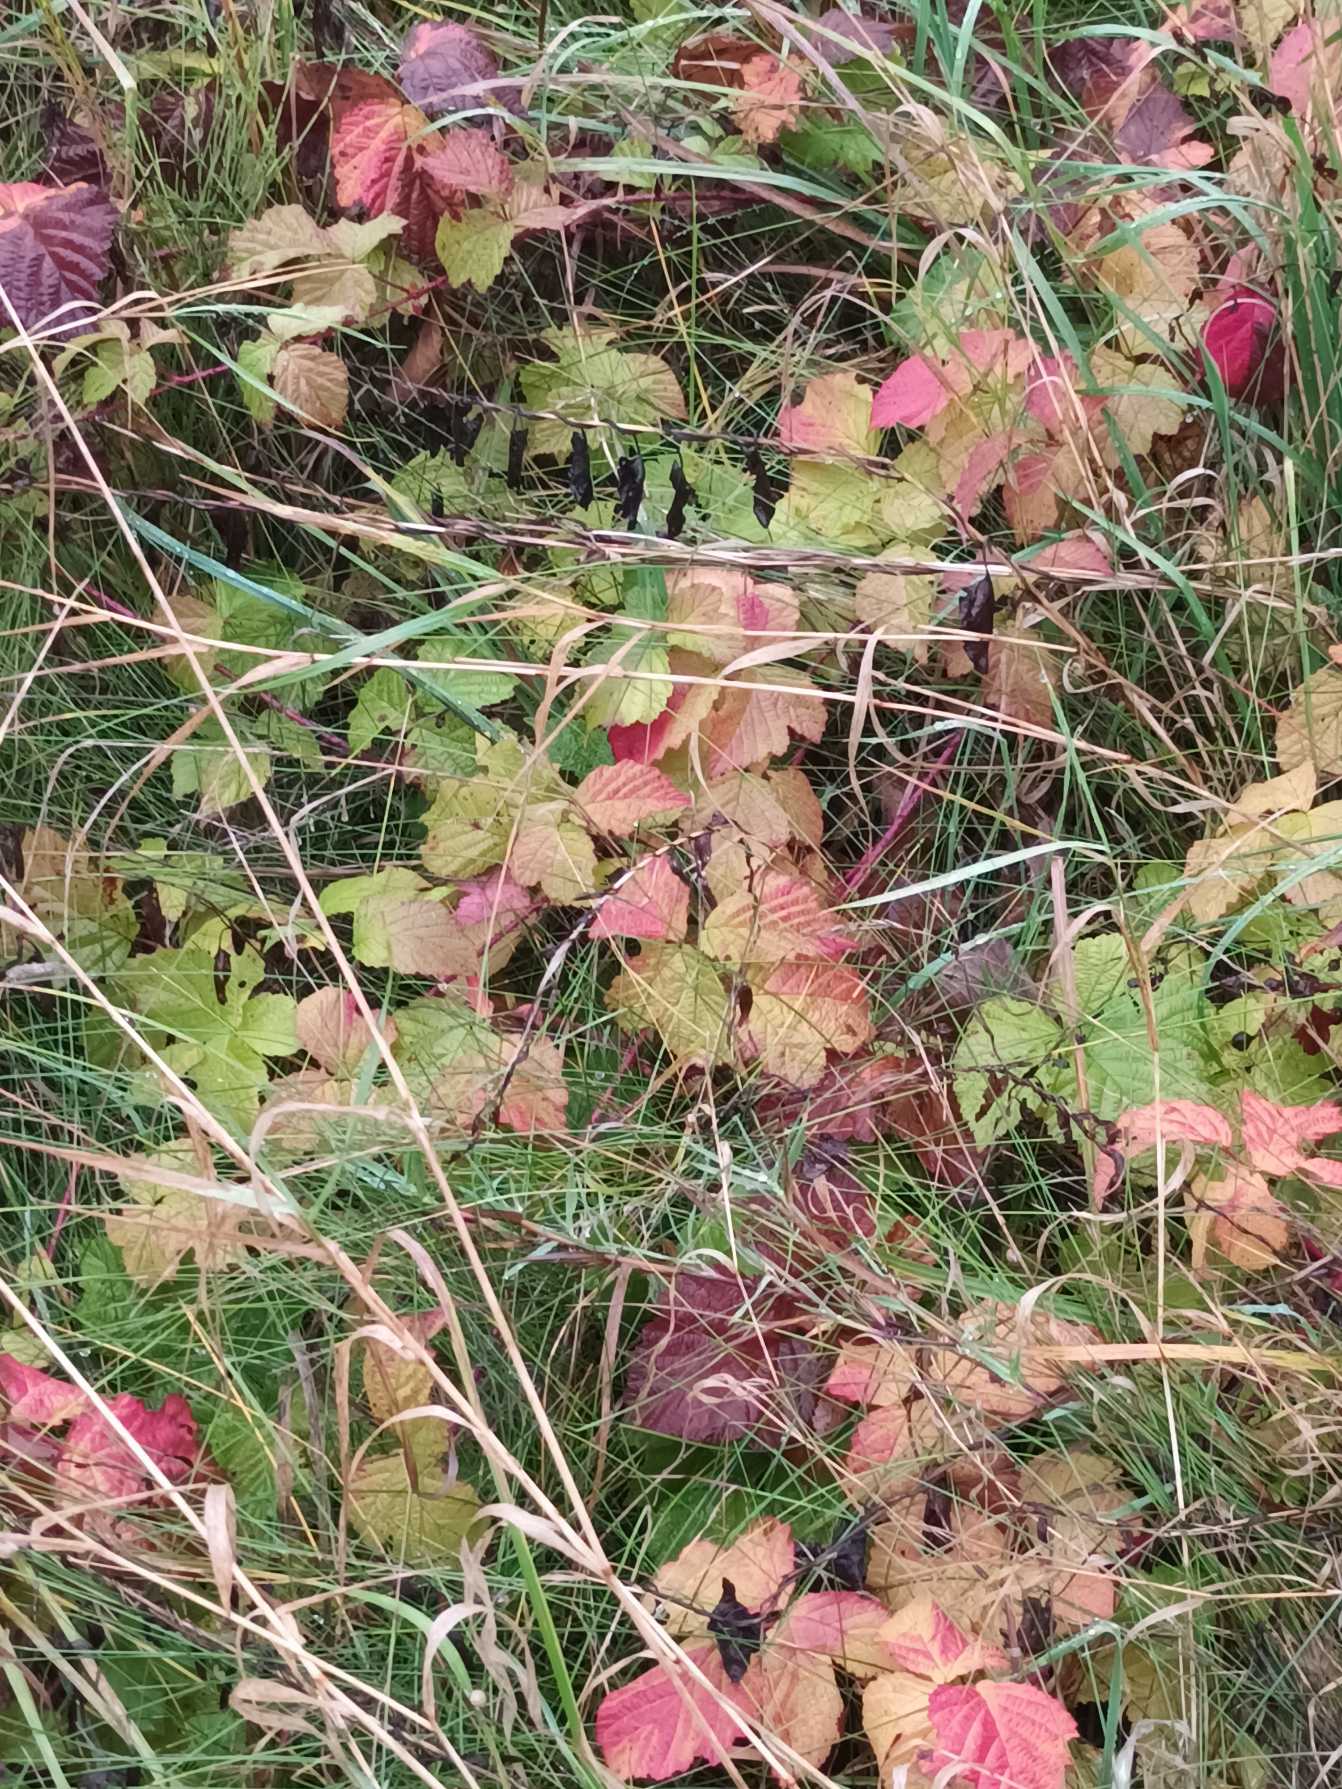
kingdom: Plantae
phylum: Tracheophyta
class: Magnoliopsida
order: Rosales
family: Rosaceae
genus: Rubus
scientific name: Rubus caesius
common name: Korbær
